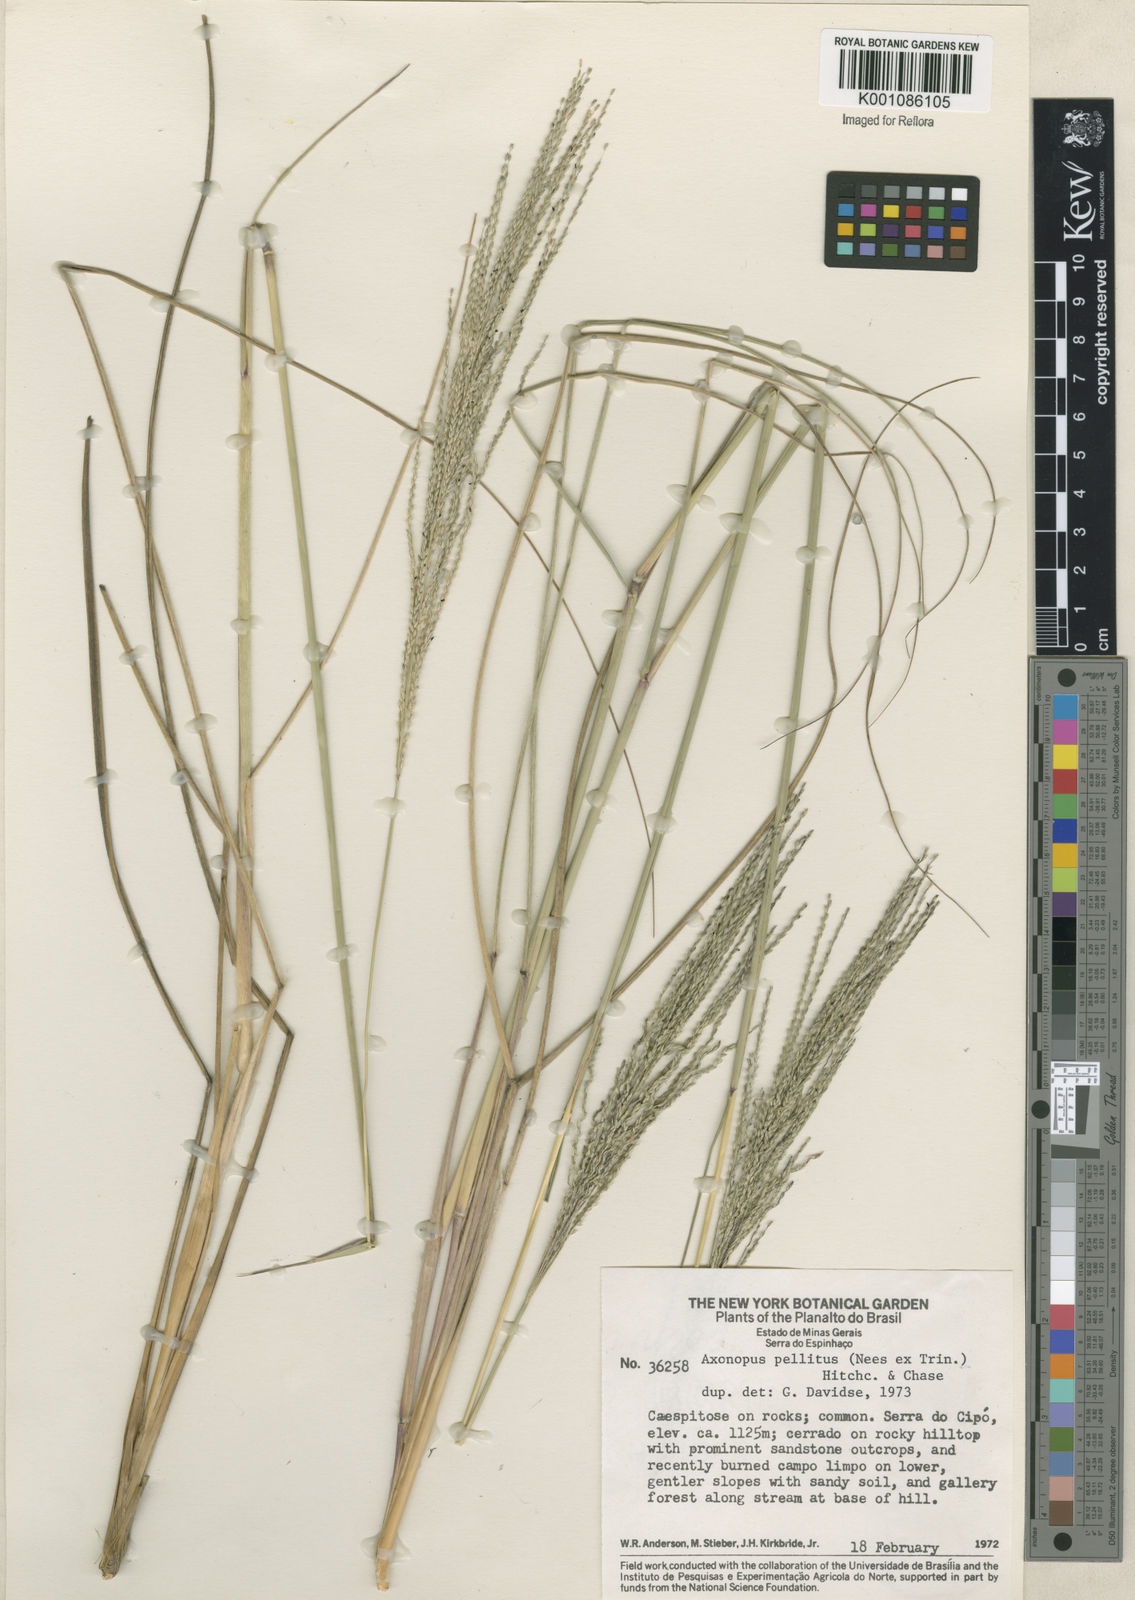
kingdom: Plantae
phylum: Tracheophyta
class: Liliopsida
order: Poales
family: Poaceae
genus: Axonopus
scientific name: Axonopus siccus
